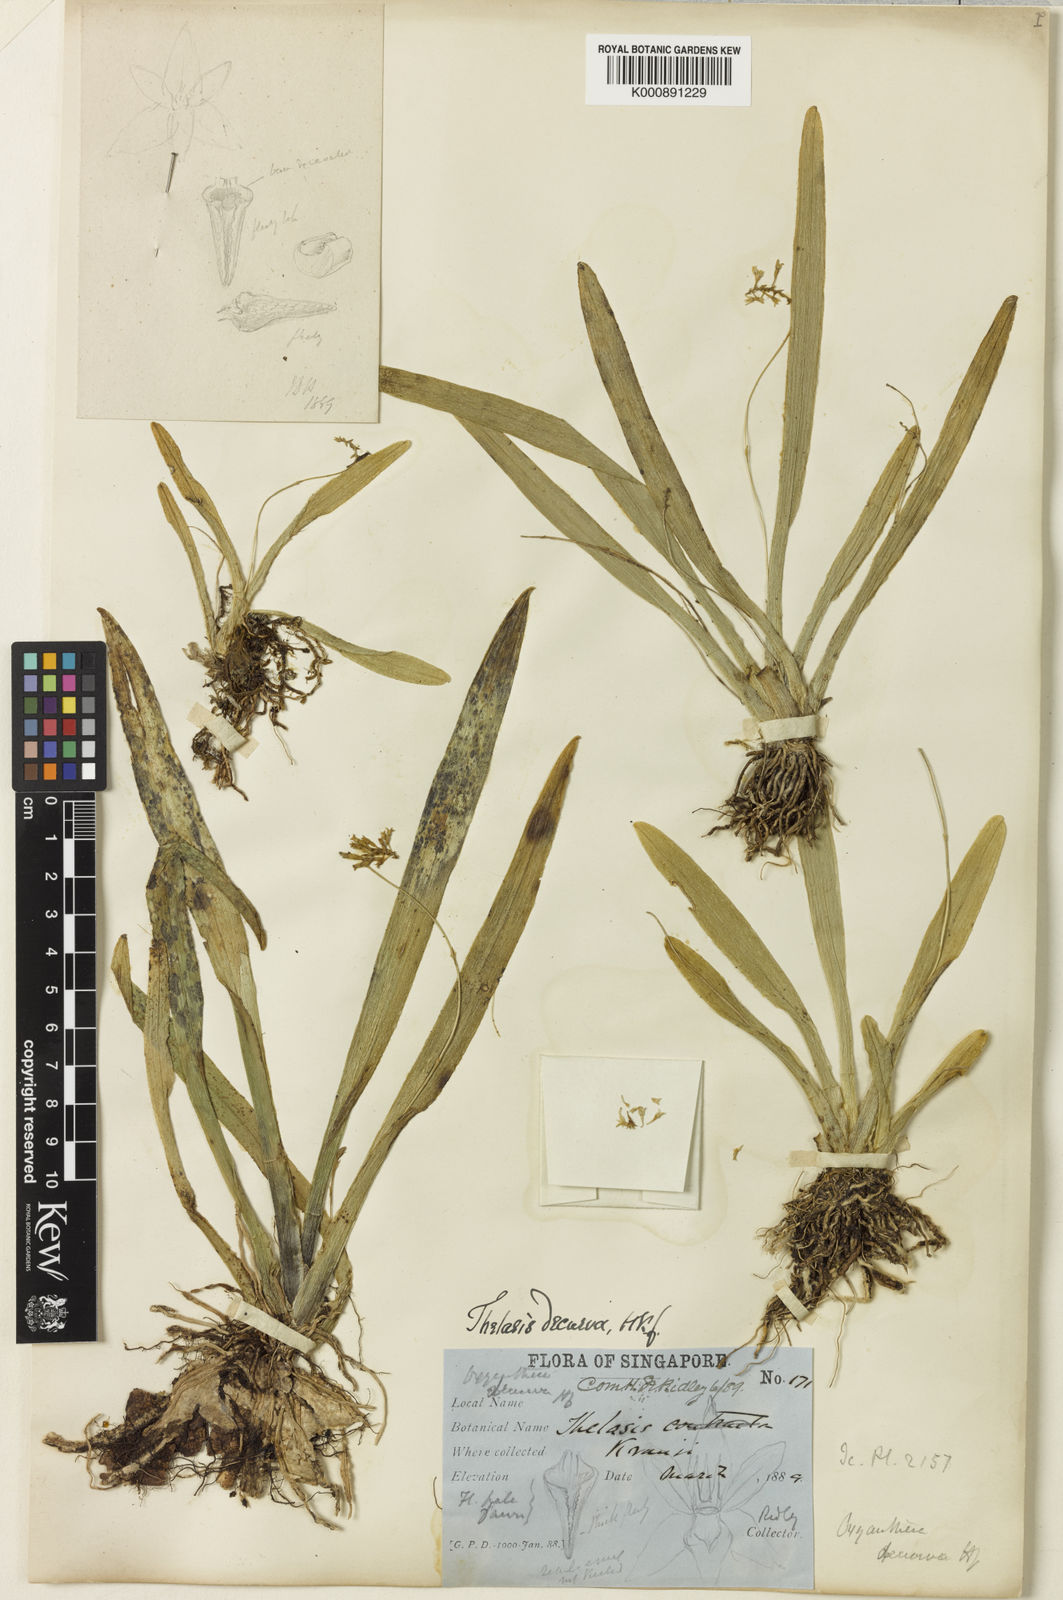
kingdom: Plantae
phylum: Tracheophyta
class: Liliopsida
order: Asparagales
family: Orchidaceae
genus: Thelasis
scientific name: Thelasis micrantha
